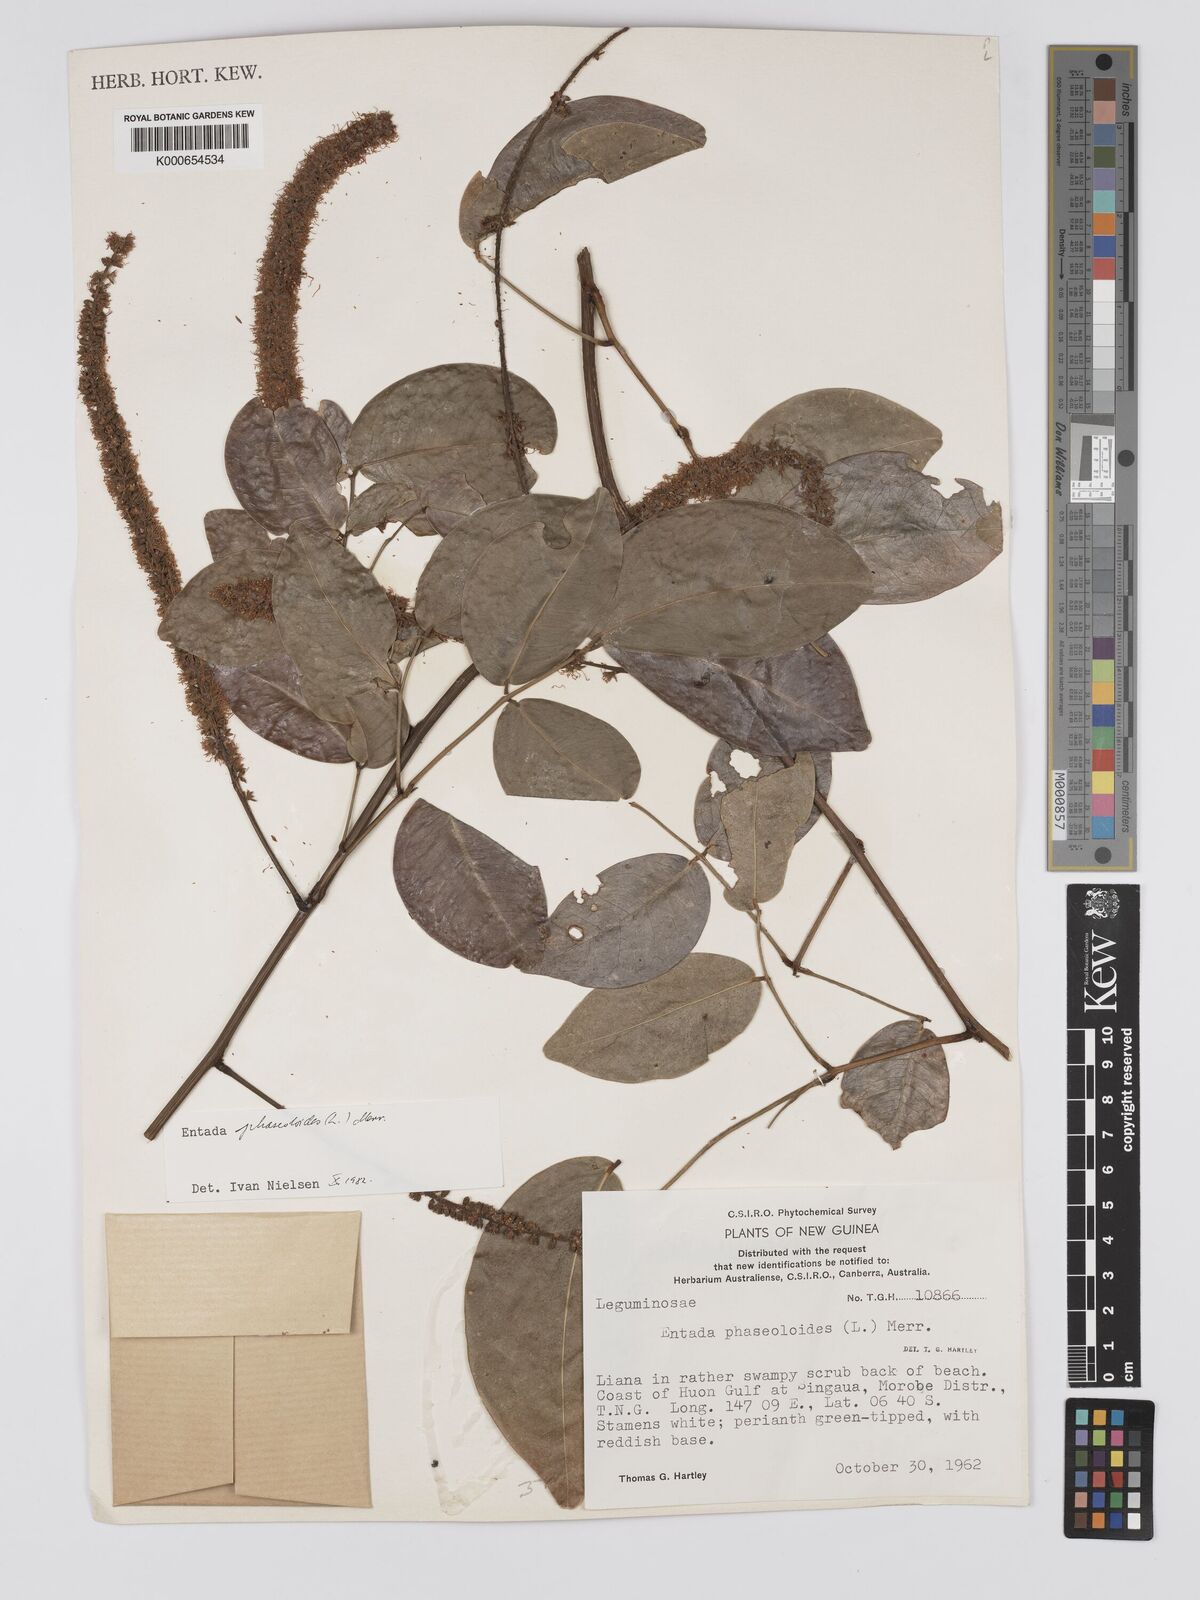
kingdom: Plantae
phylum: Tracheophyta
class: Magnoliopsida
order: Fabales
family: Fabaceae
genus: Entada
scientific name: Entada phaseoloides
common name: Matchbox-bean
